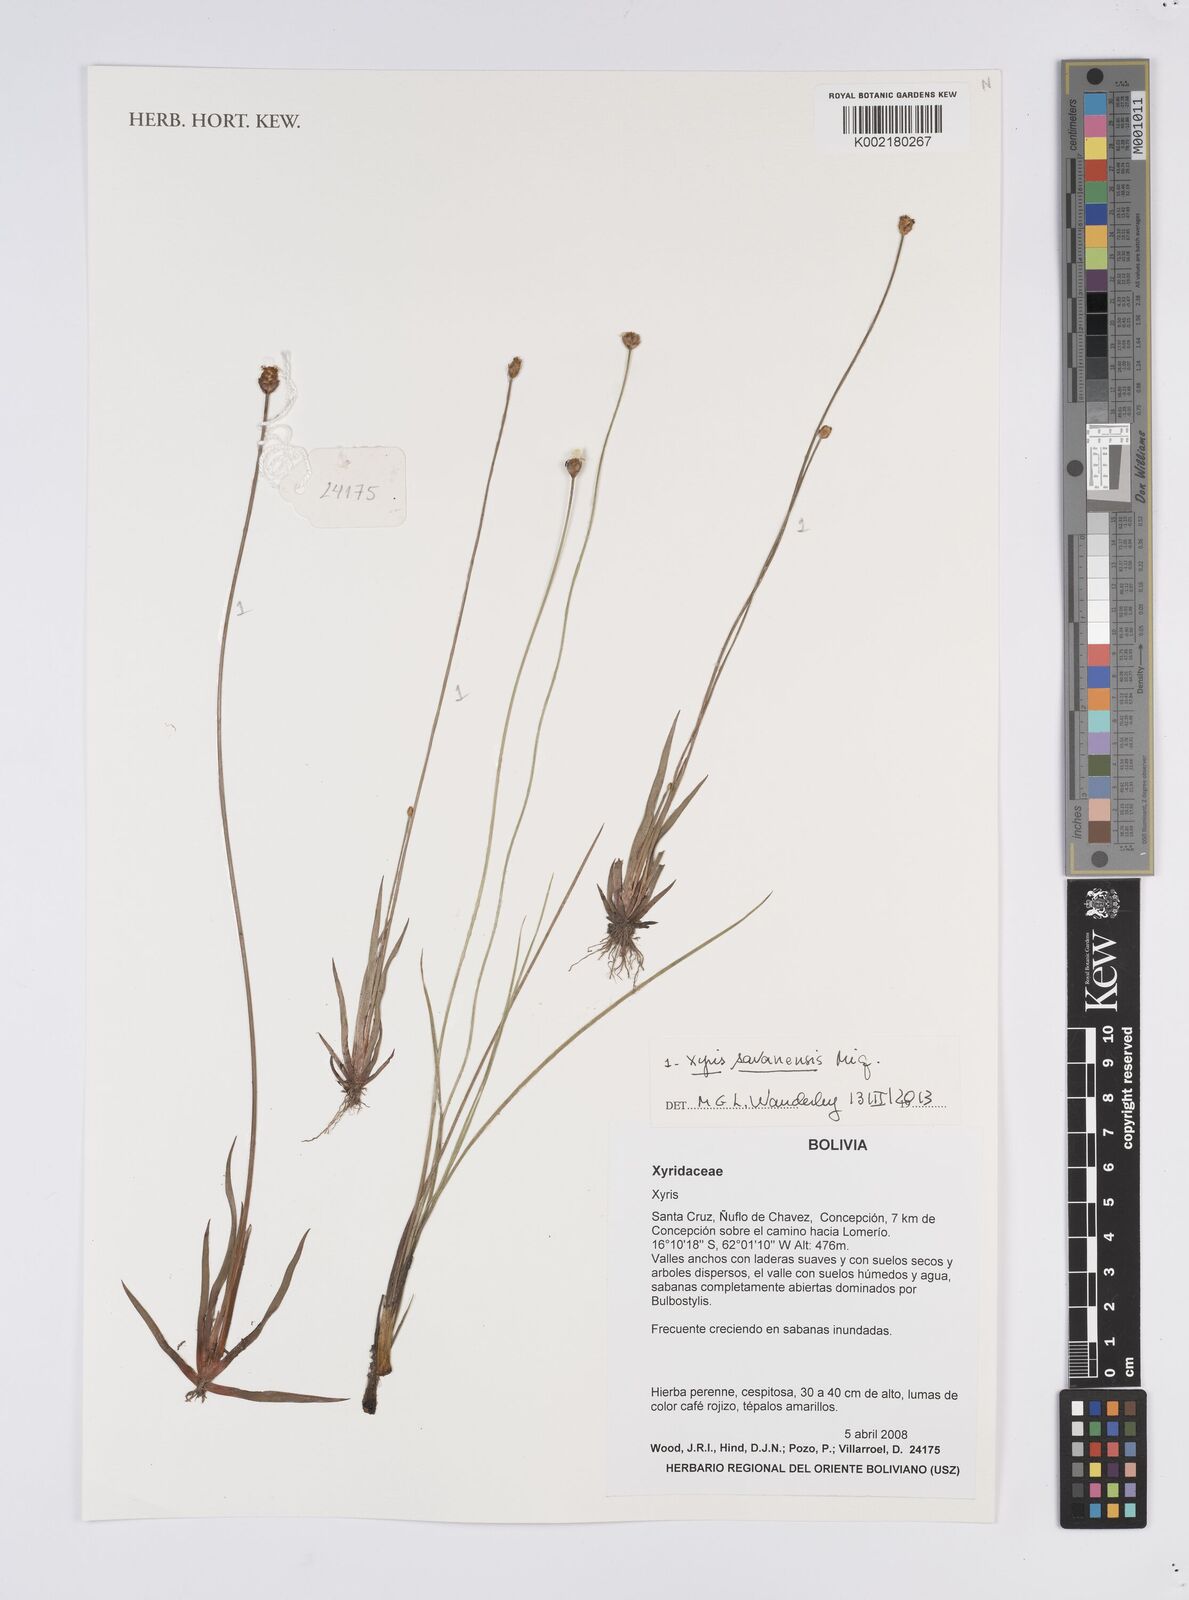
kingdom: Plantae
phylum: Tracheophyta
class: Liliopsida
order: Poales
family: Xyridaceae
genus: Xyris
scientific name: Xyris savanensis
